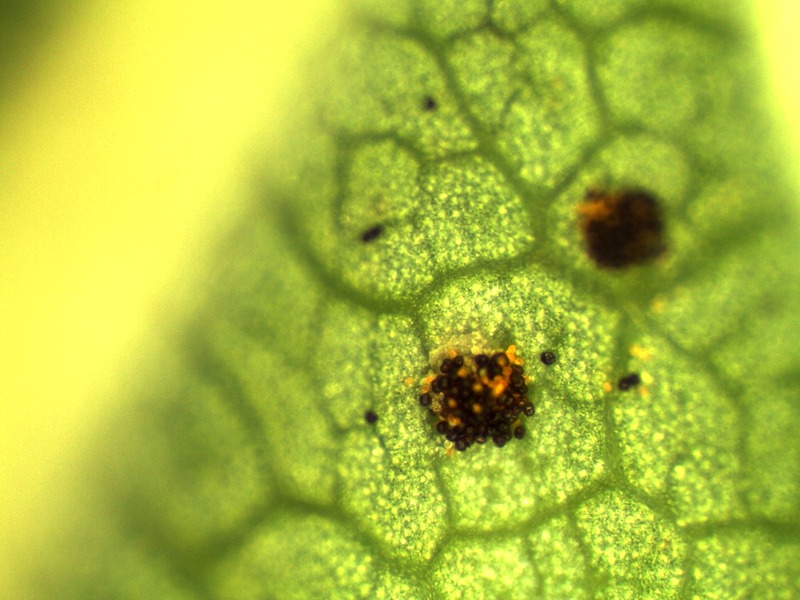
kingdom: Fungi
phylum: Basidiomycota
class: Pucciniomycetes
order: Pucciniales
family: Raveneliaceae
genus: Triphragmium
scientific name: Triphragmium ulmariae
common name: Meadowsweet rust
